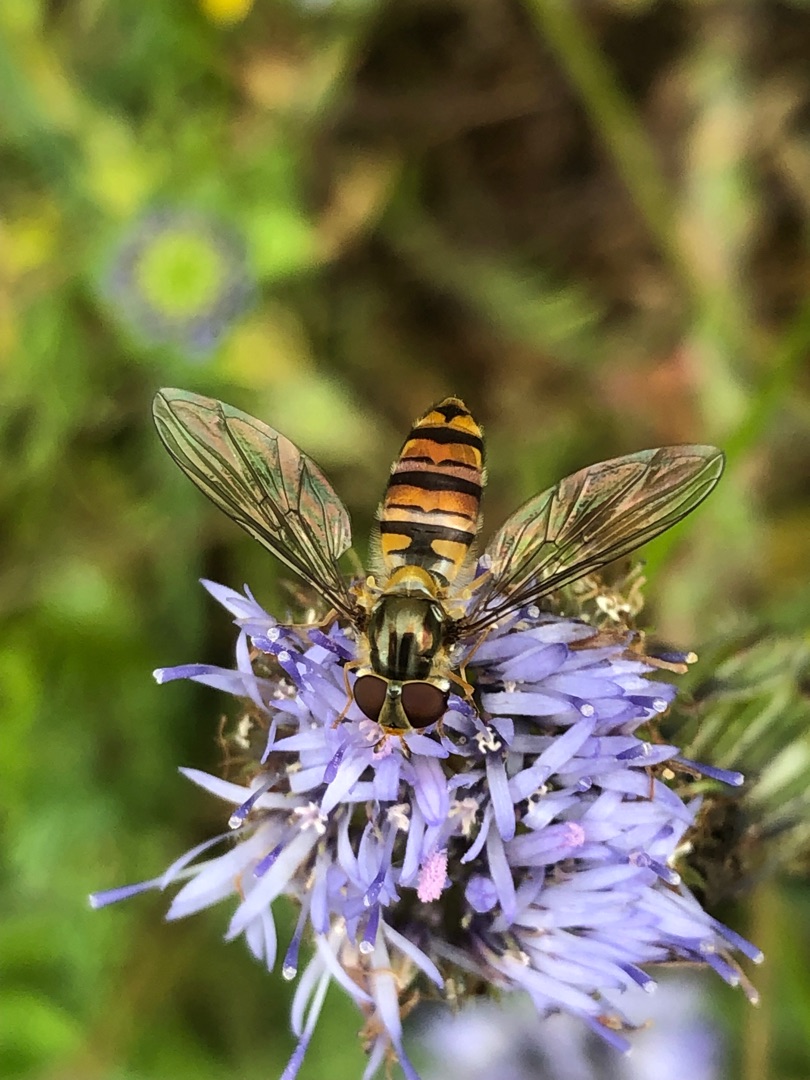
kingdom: Animalia
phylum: Arthropoda
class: Insecta
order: Diptera
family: Syrphidae
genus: Episyrphus
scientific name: Episyrphus balteatus
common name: Dobbeltbåndet svirreflue
